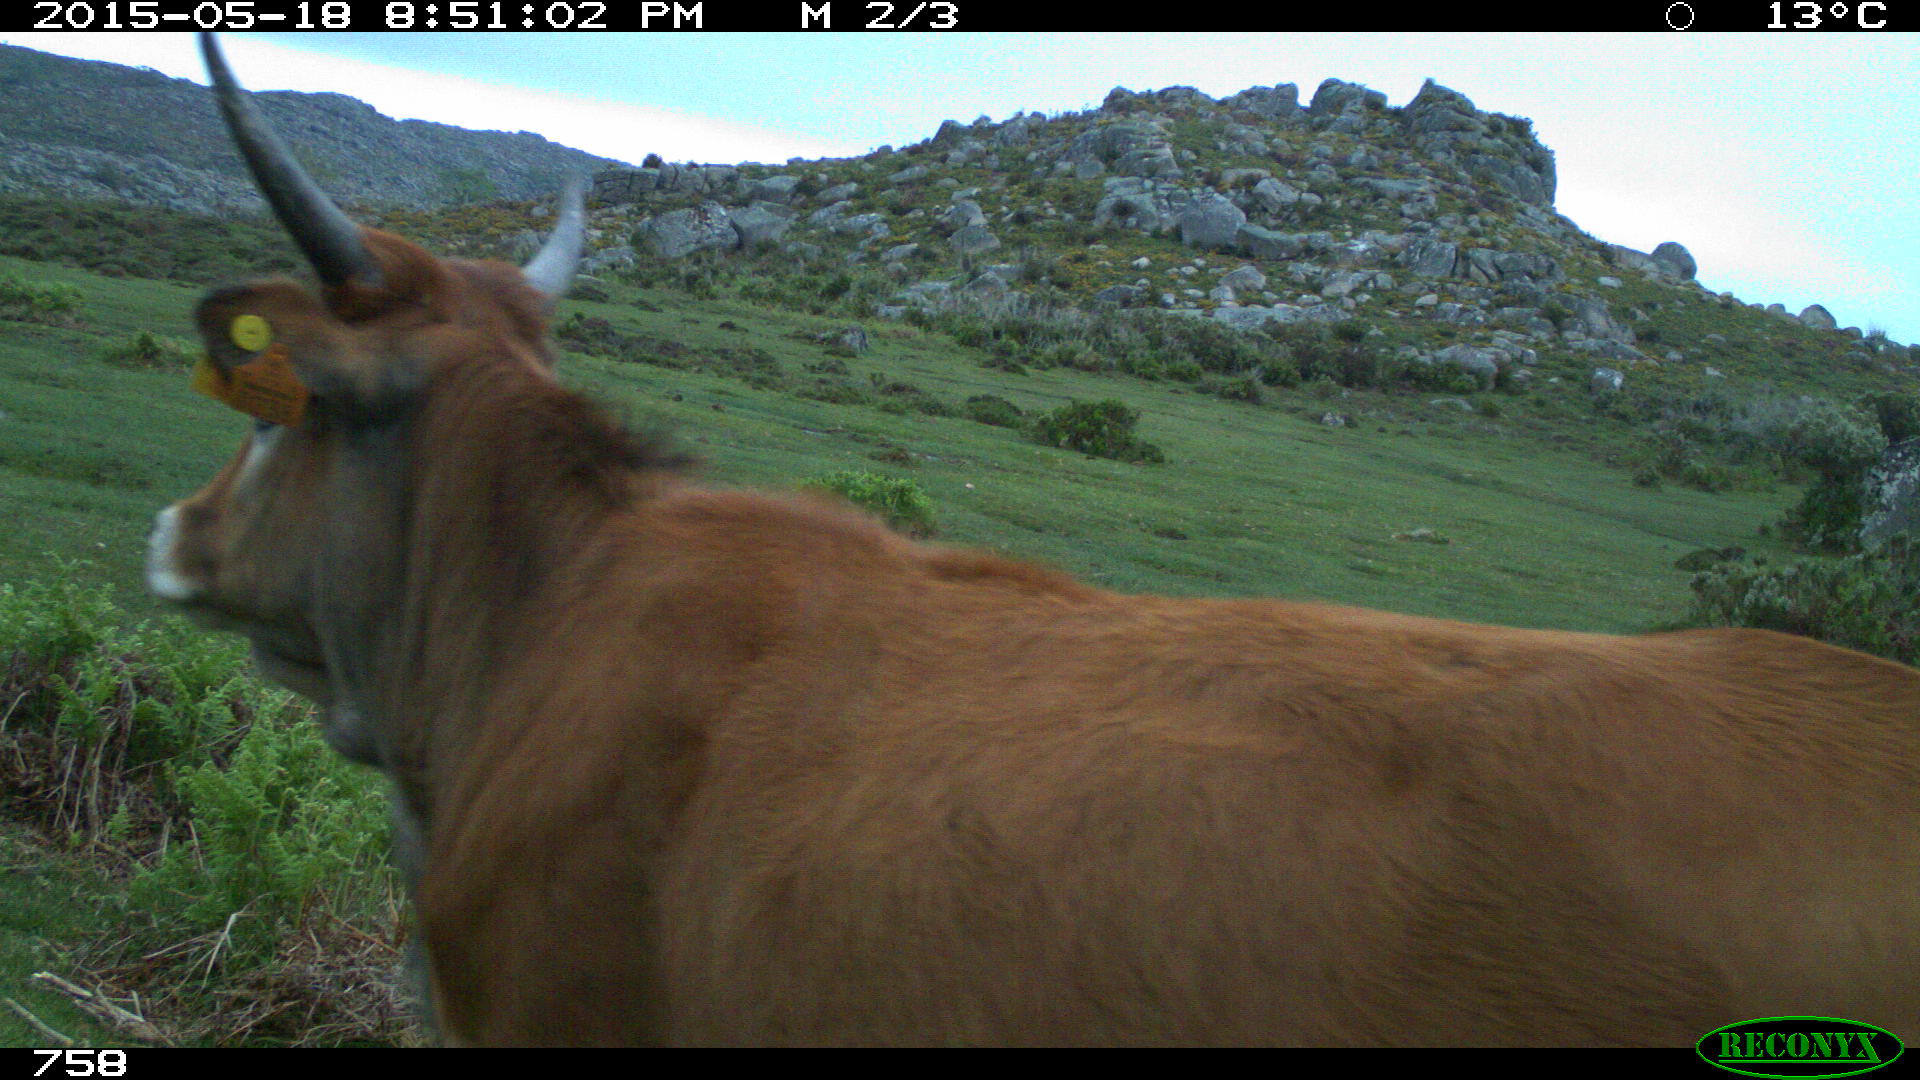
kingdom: Animalia
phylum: Chordata
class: Mammalia
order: Artiodactyla
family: Bovidae
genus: Bos
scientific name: Bos taurus
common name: Domesticated cattle
